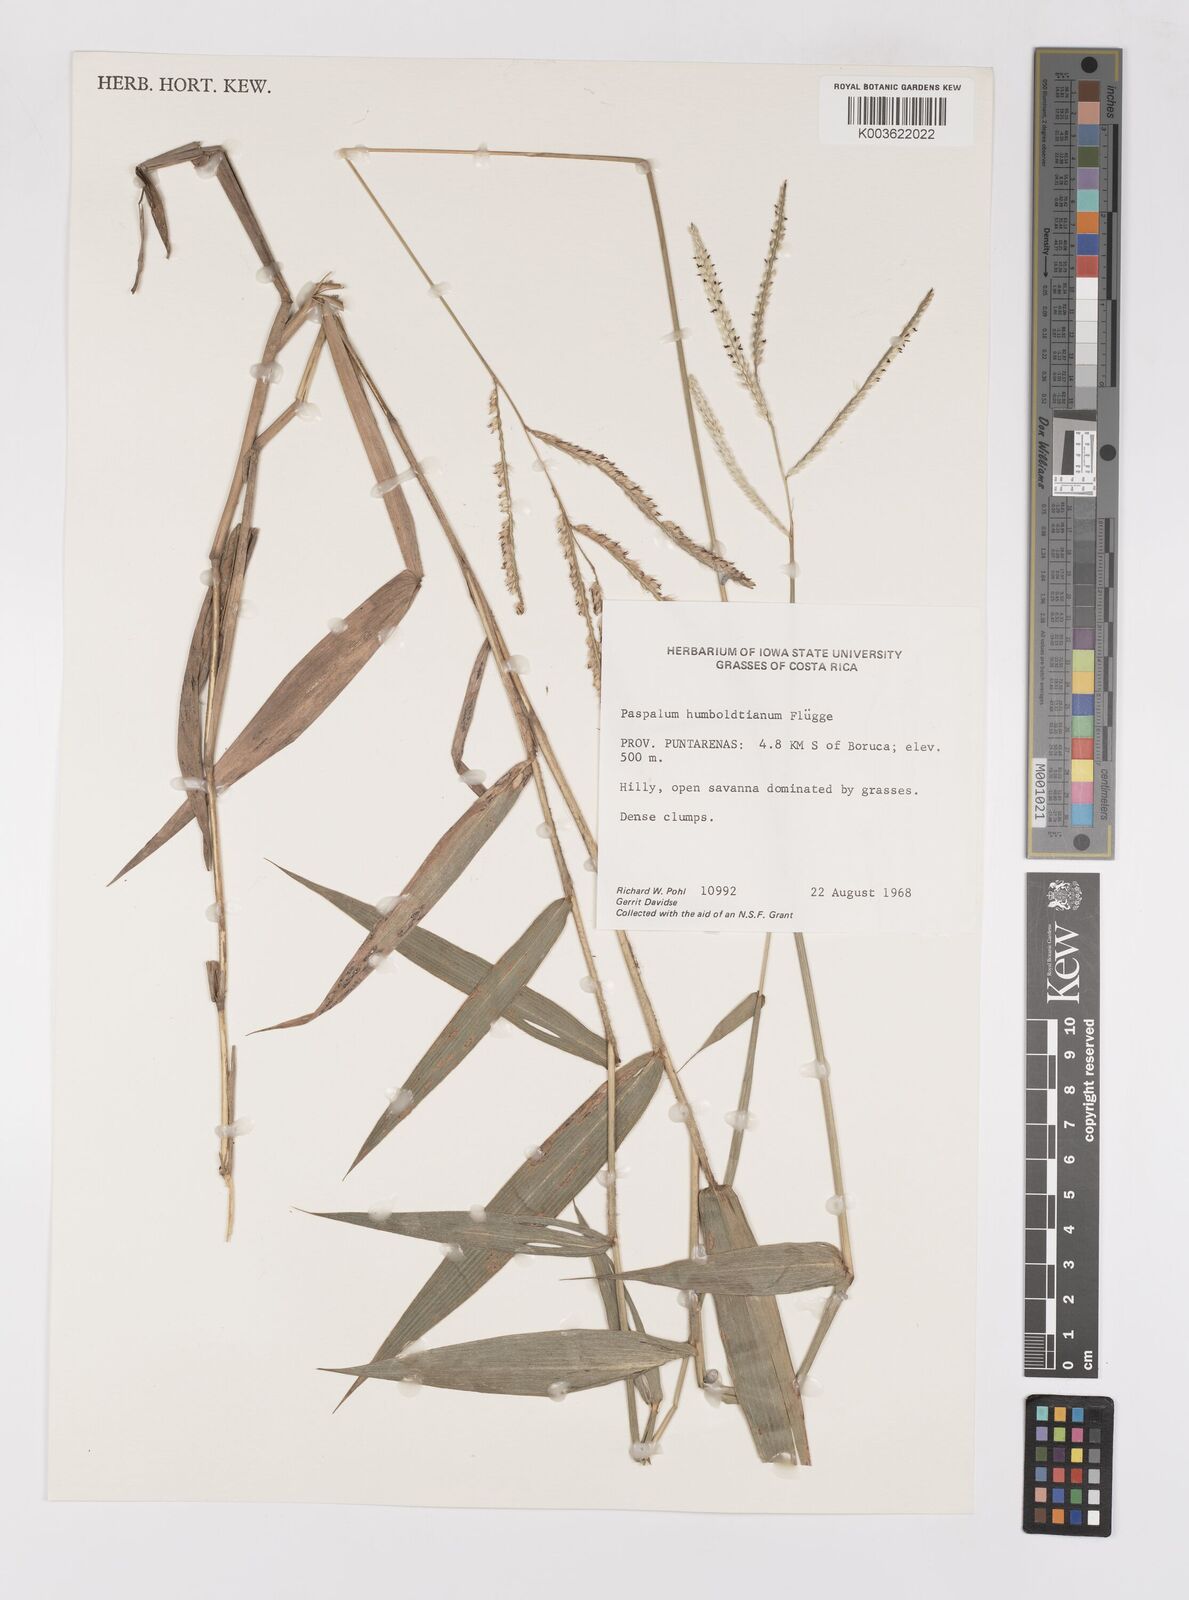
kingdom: Plantae
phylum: Tracheophyta
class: Liliopsida
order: Poales
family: Poaceae
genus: Paspalum
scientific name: Paspalum humboldtianum
